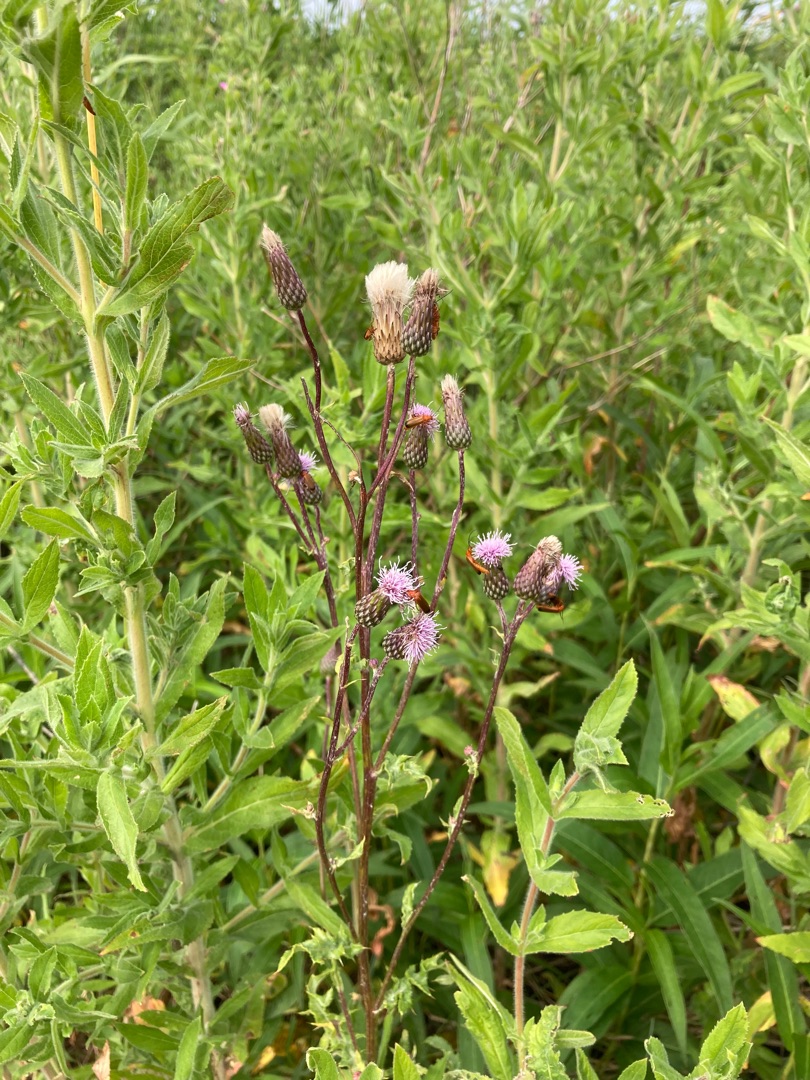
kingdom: Plantae
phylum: Tracheophyta
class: Magnoliopsida
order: Asterales
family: Asteraceae
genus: Cirsium
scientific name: Cirsium arvense
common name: Ager-tidsel
